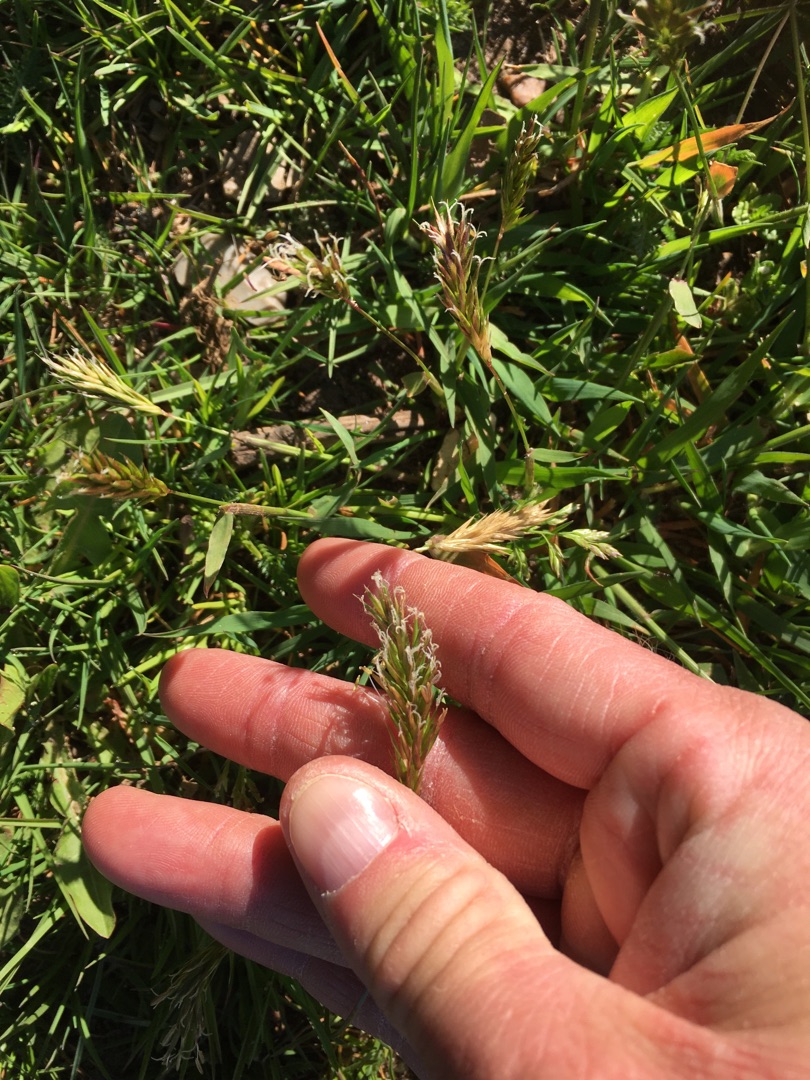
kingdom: Plantae
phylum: Tracheophyta
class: Liliopsida
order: Poales
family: Poaceae
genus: Anthoxanthum
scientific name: Anthoxanthum odoratum
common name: Vellugtende gulaks
